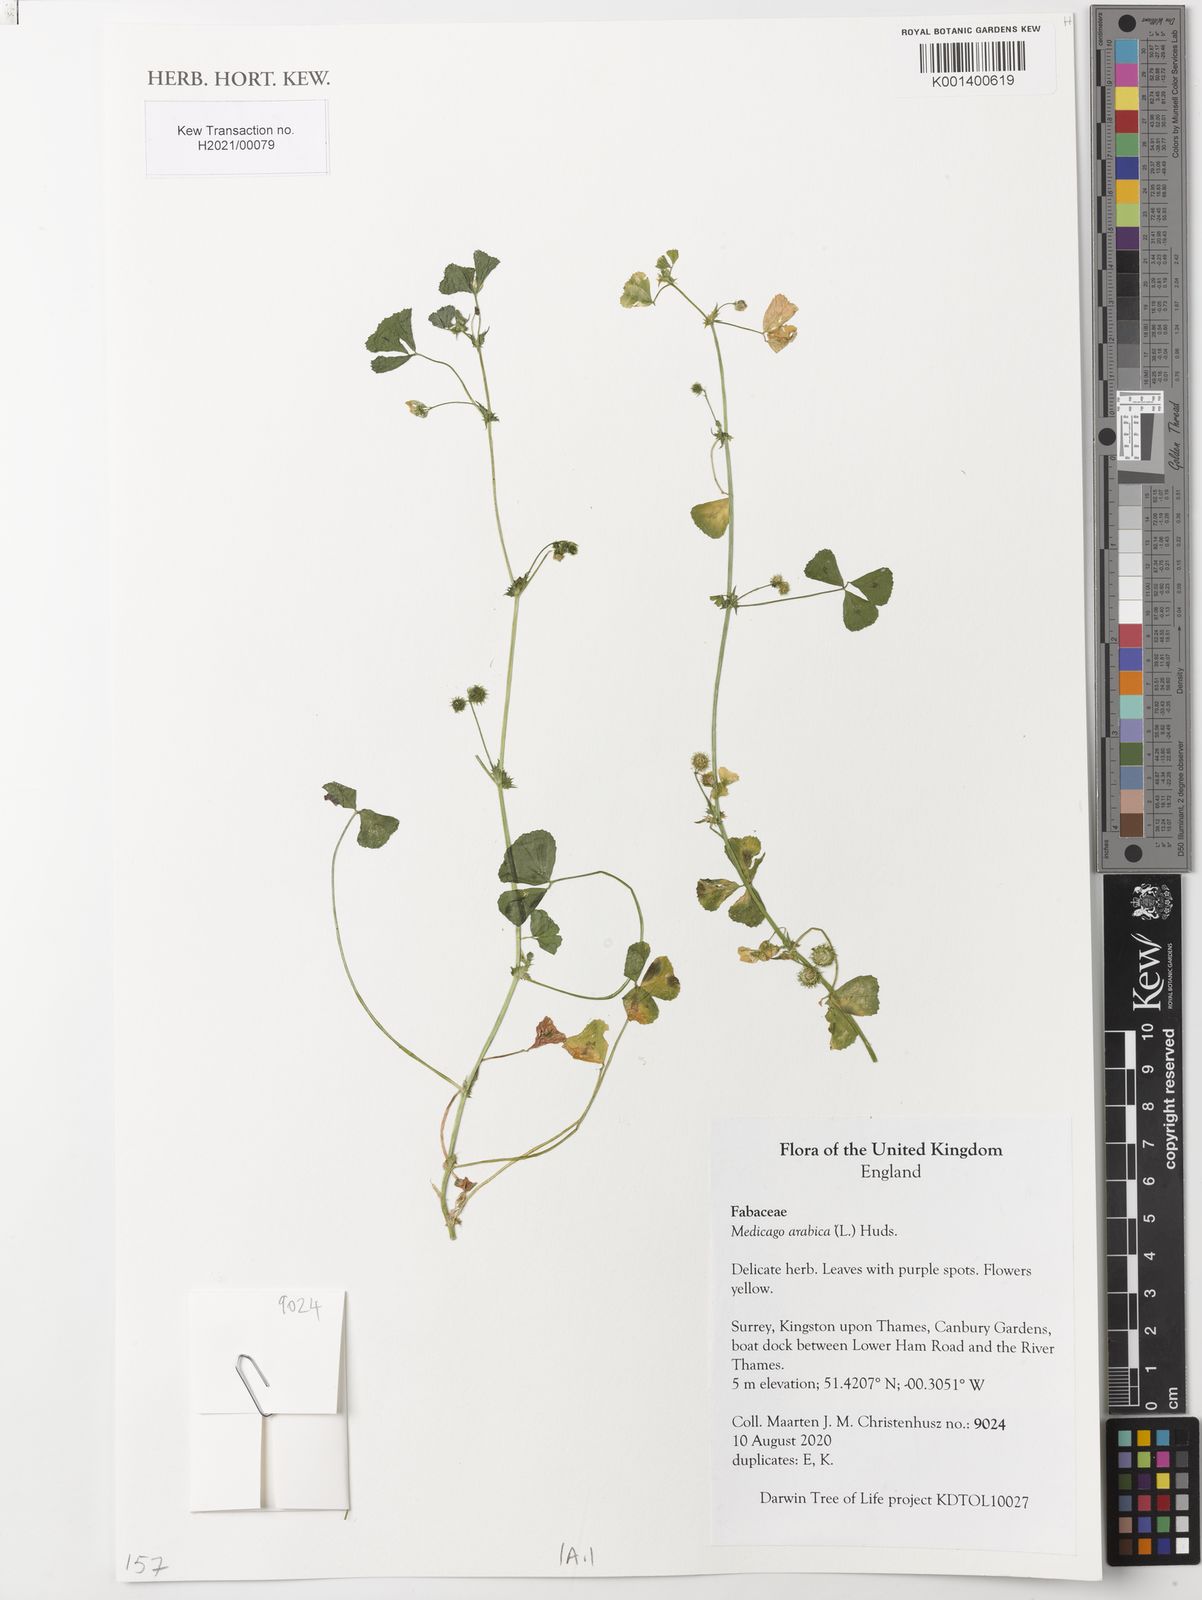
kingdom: Plantae
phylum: Tracheophyta
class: Magnoliopsida
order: Fabales
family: Fabaceae
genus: Medicago
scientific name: Medicago arabica
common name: Spotted medick
